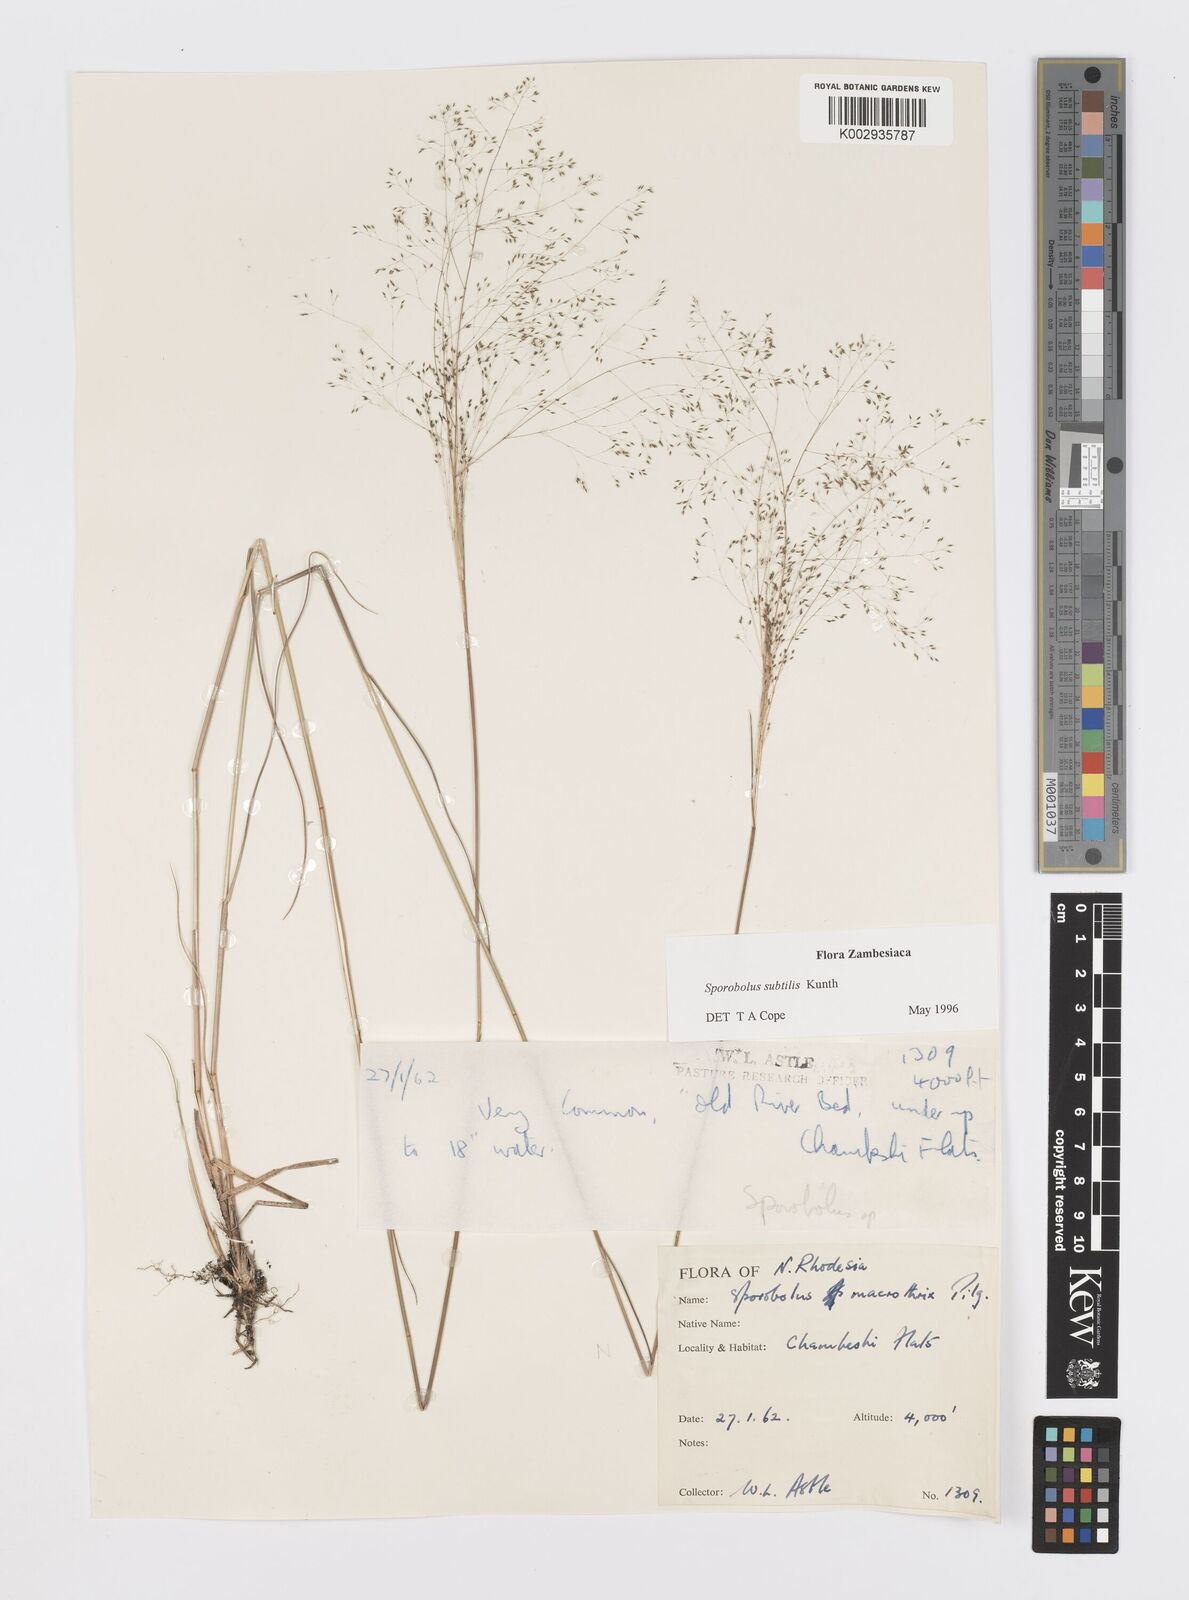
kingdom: Plantae
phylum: Tracheophyta
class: Liliopsida
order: Poales
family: Poaceae
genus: Sporobolus
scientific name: Sporobolus subtilis
